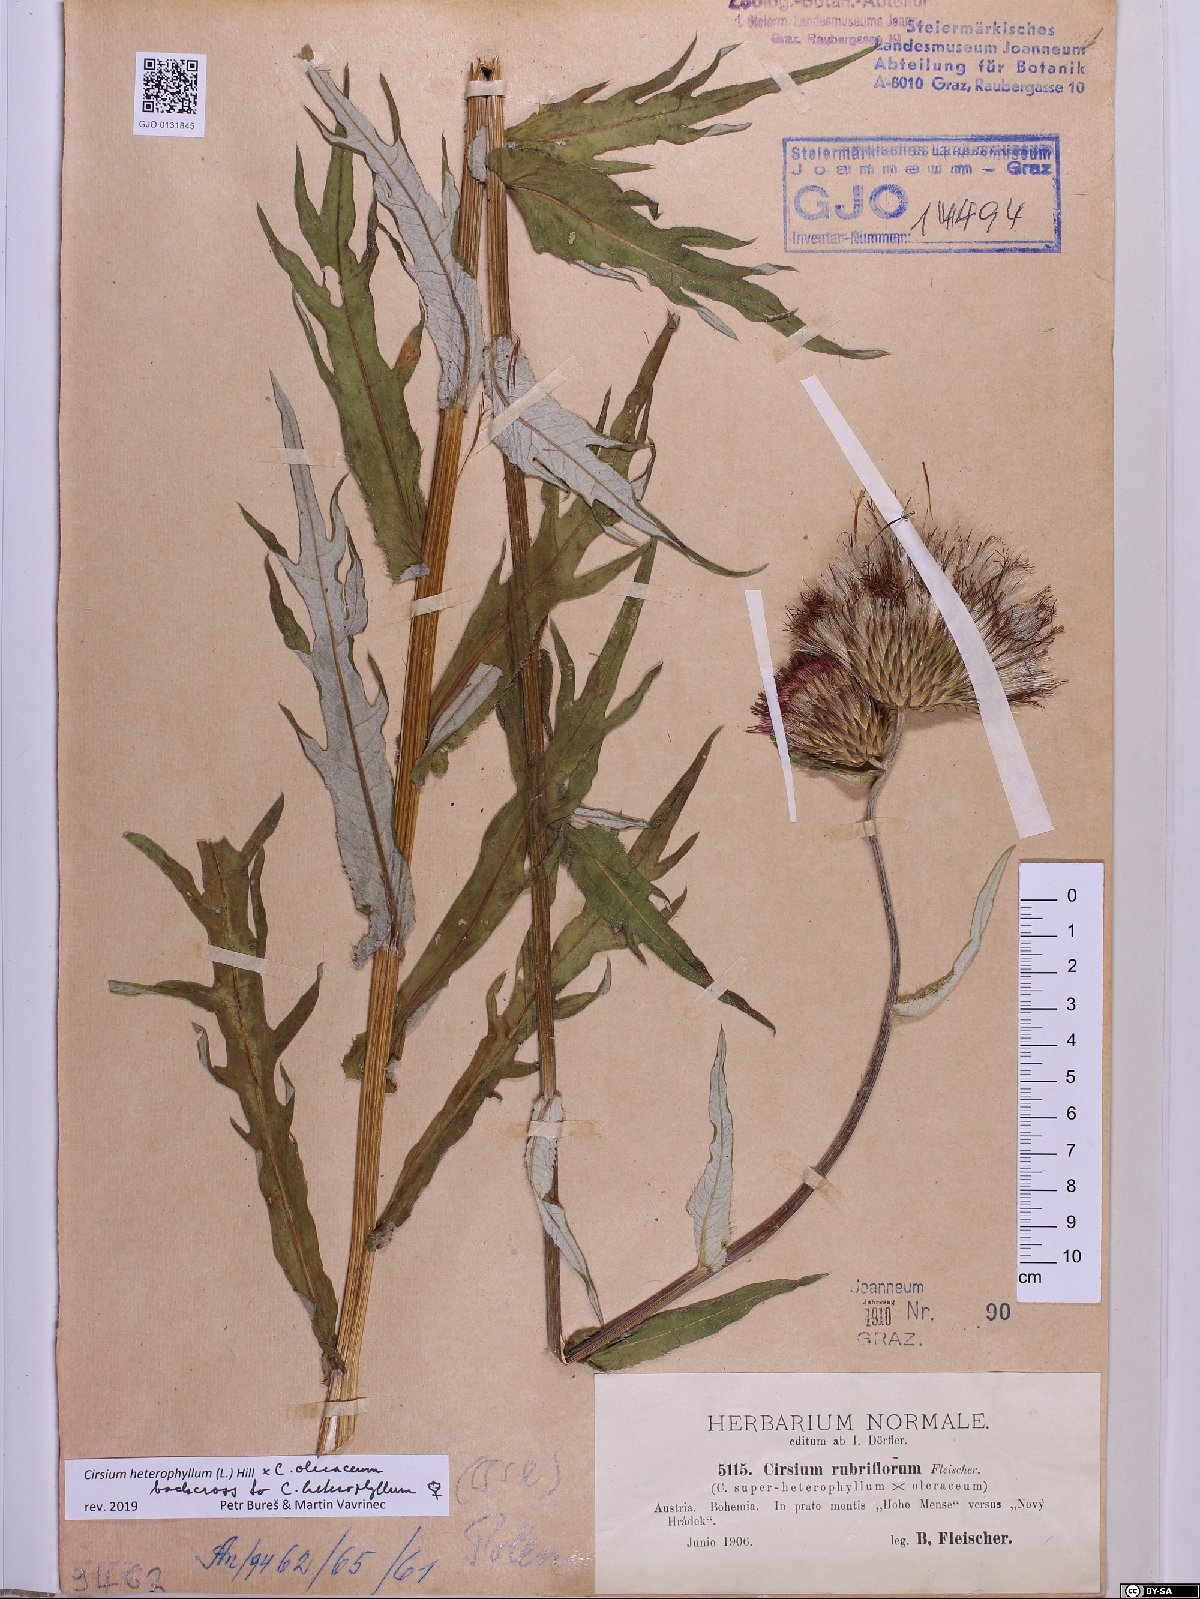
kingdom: Plantae
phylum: Tracheophyta
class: Magnoliopsida
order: Asterales
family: Asteraceae
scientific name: Asteraceae
